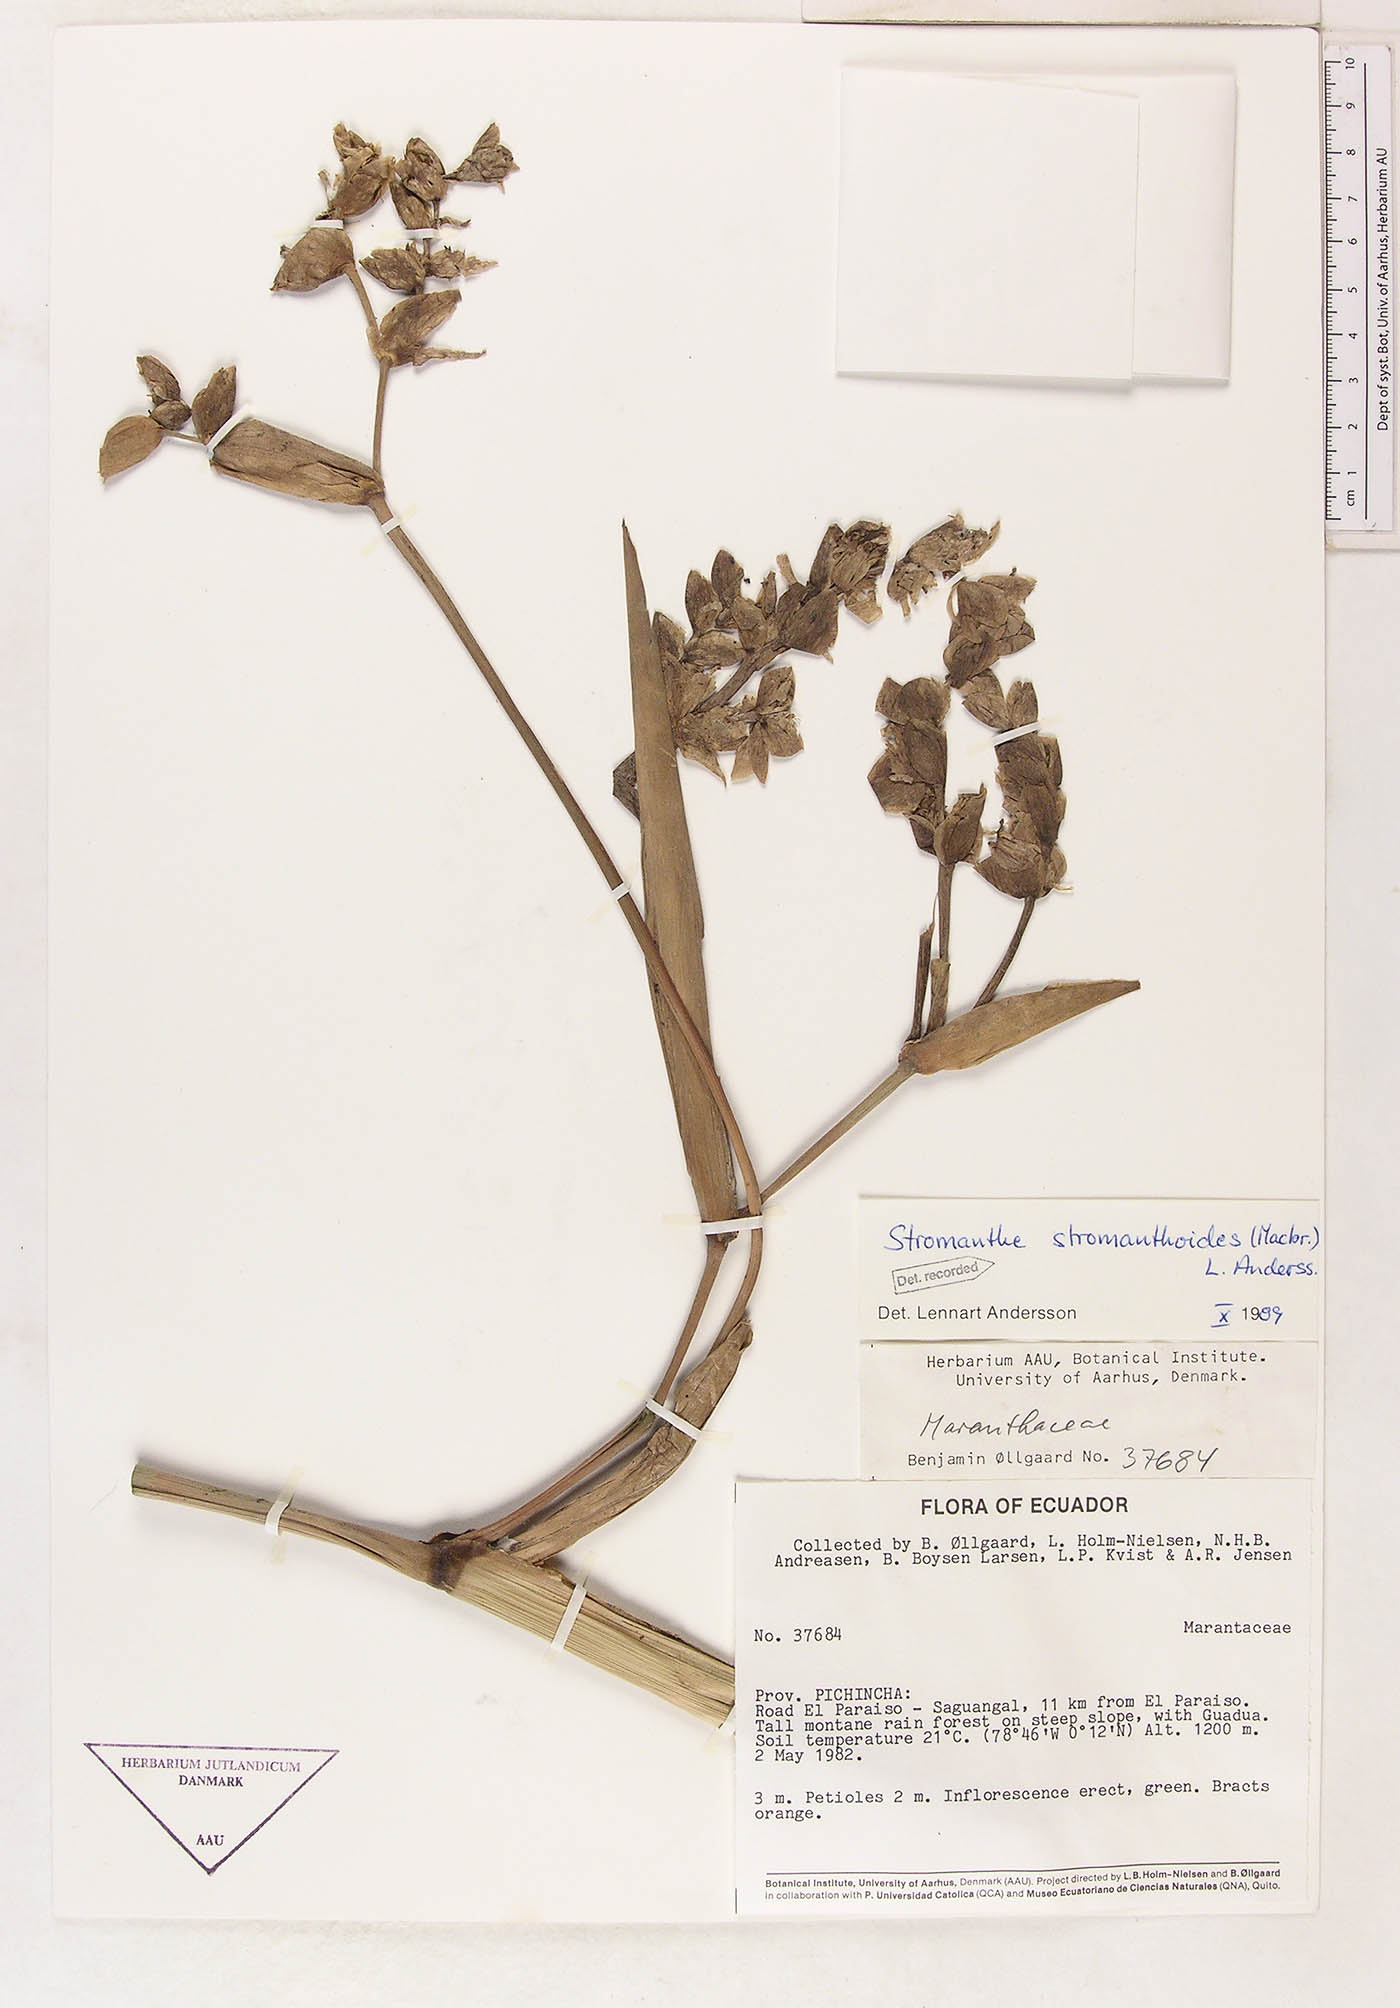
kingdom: Plantae
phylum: Tracheophyta
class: Liliopsida
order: Zingiberales
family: Marantaceae
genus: Stromanthe
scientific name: Stromanthe stromanthoides
